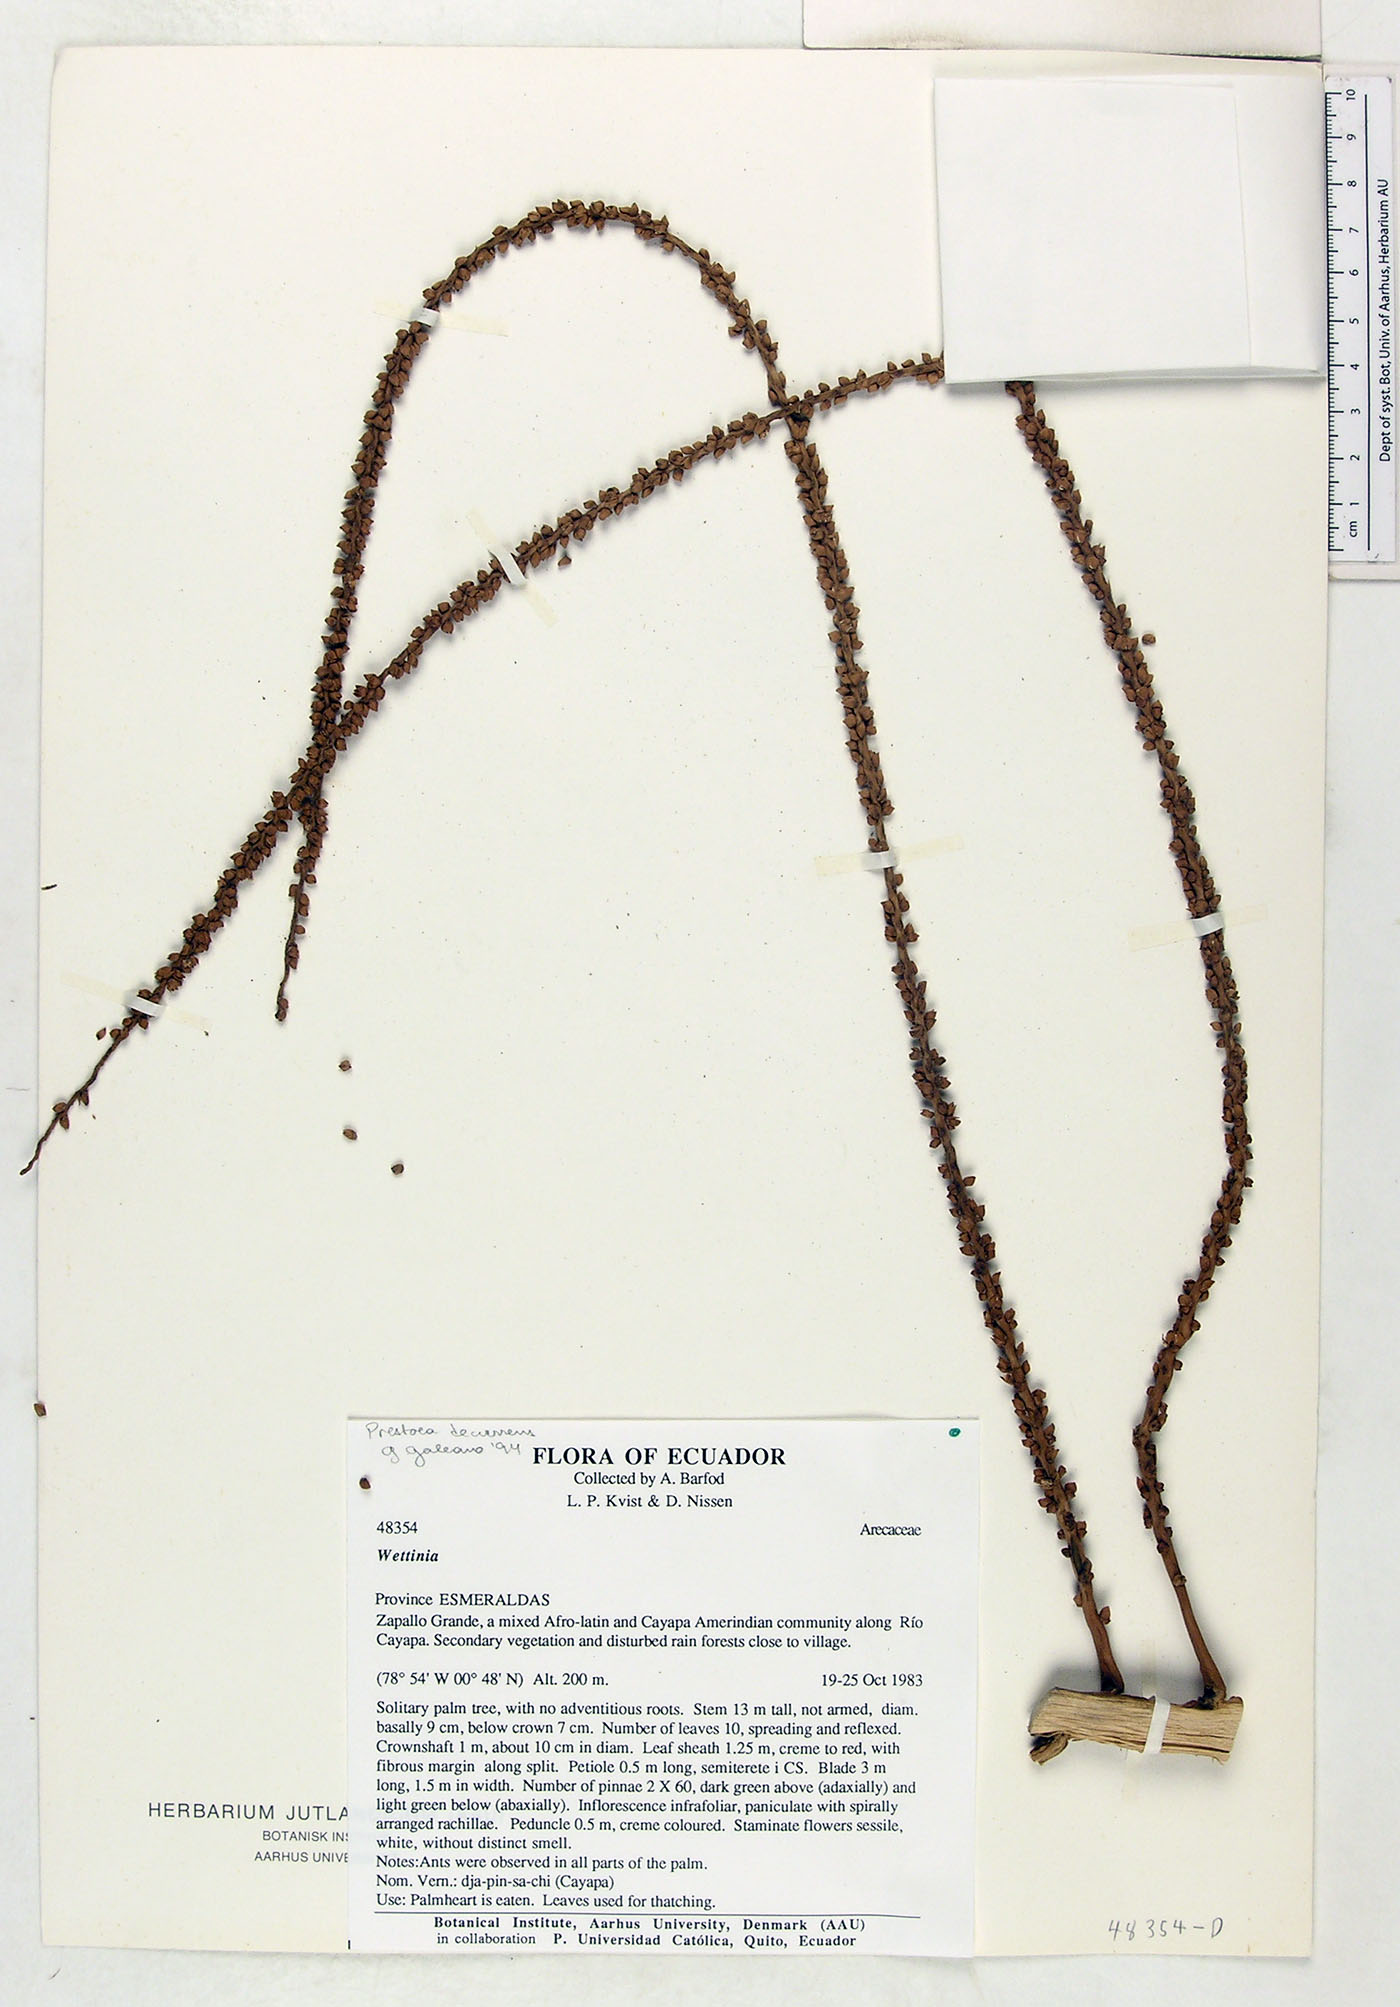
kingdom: Plantae
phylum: Tracheophyta
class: Liliopsida
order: Arecales
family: Arecaceae
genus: Prestoea
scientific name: Prestoea decurrens
